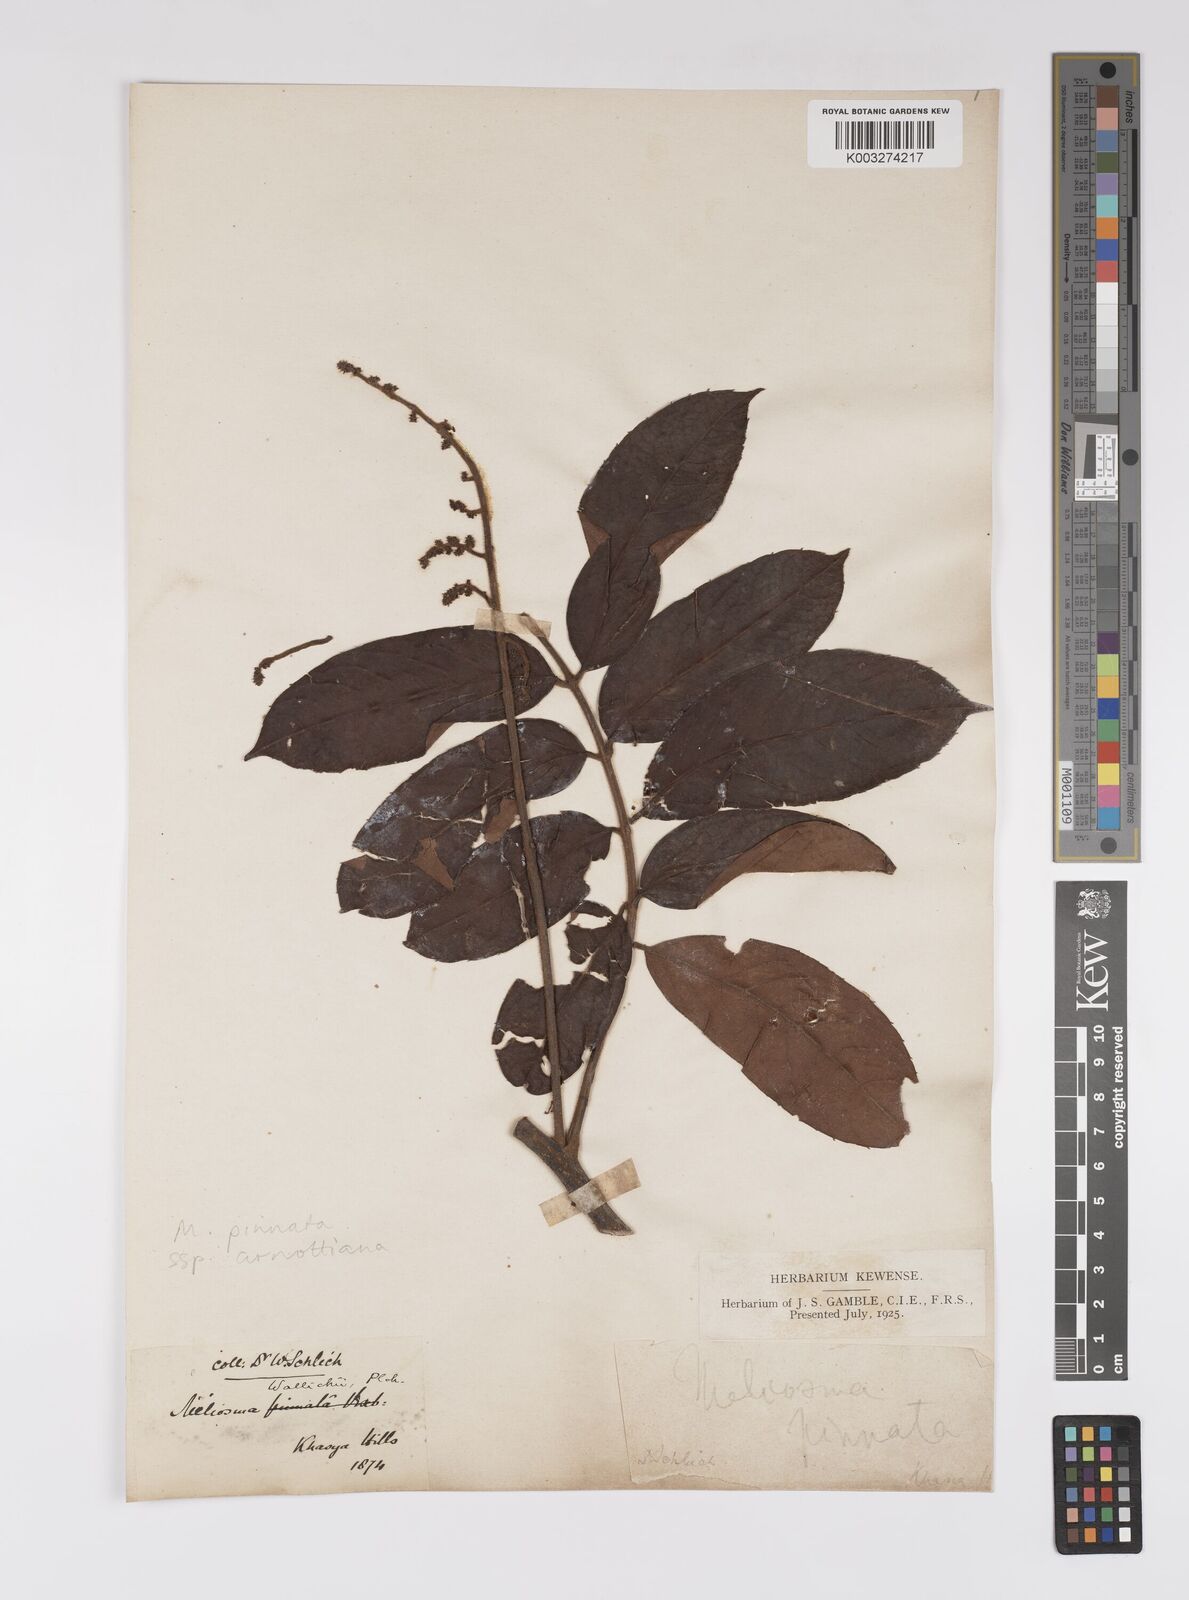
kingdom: Plantae
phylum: Tracheophyta
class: Magnoliopsida
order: Proteales
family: Sabiaceae
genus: Meliosma
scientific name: Meliosma rhoifolia
